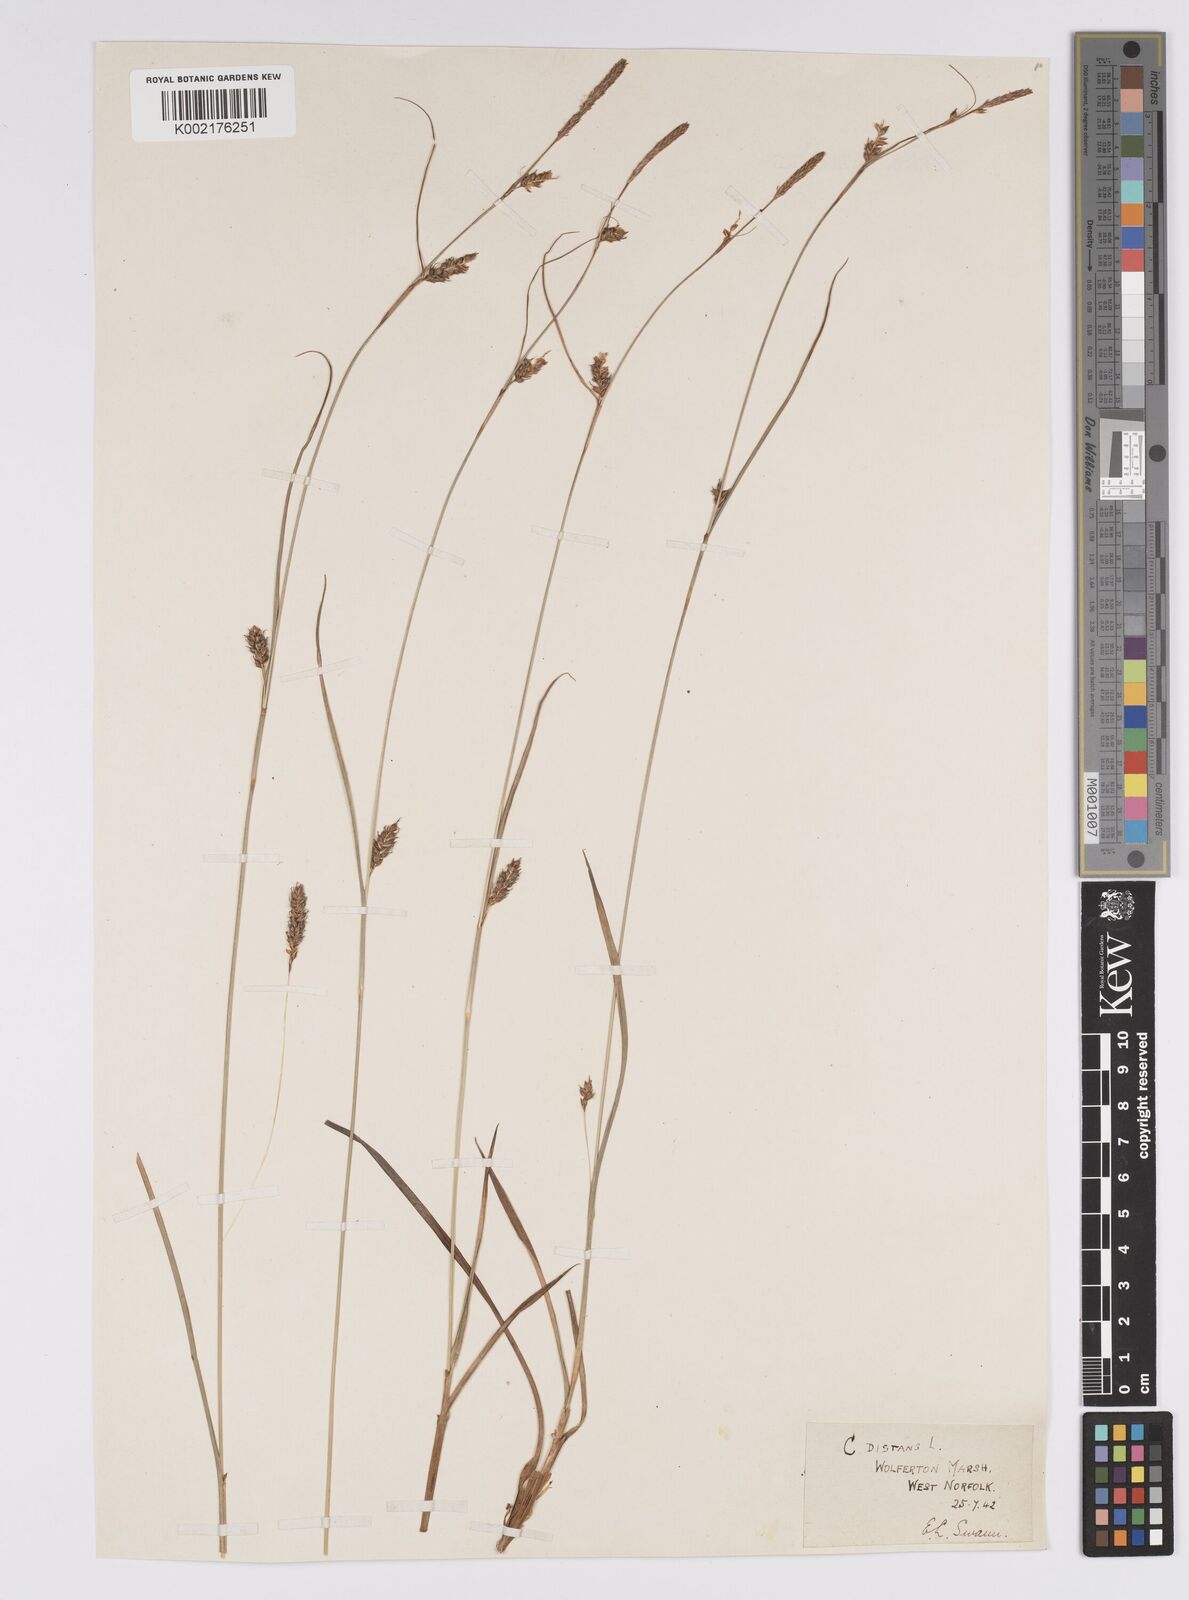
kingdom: Plantae
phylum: Tracheophyta
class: Liliopsida
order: Poales
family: Cyperaceae
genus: Carex
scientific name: Carex distans
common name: Distant sedge
